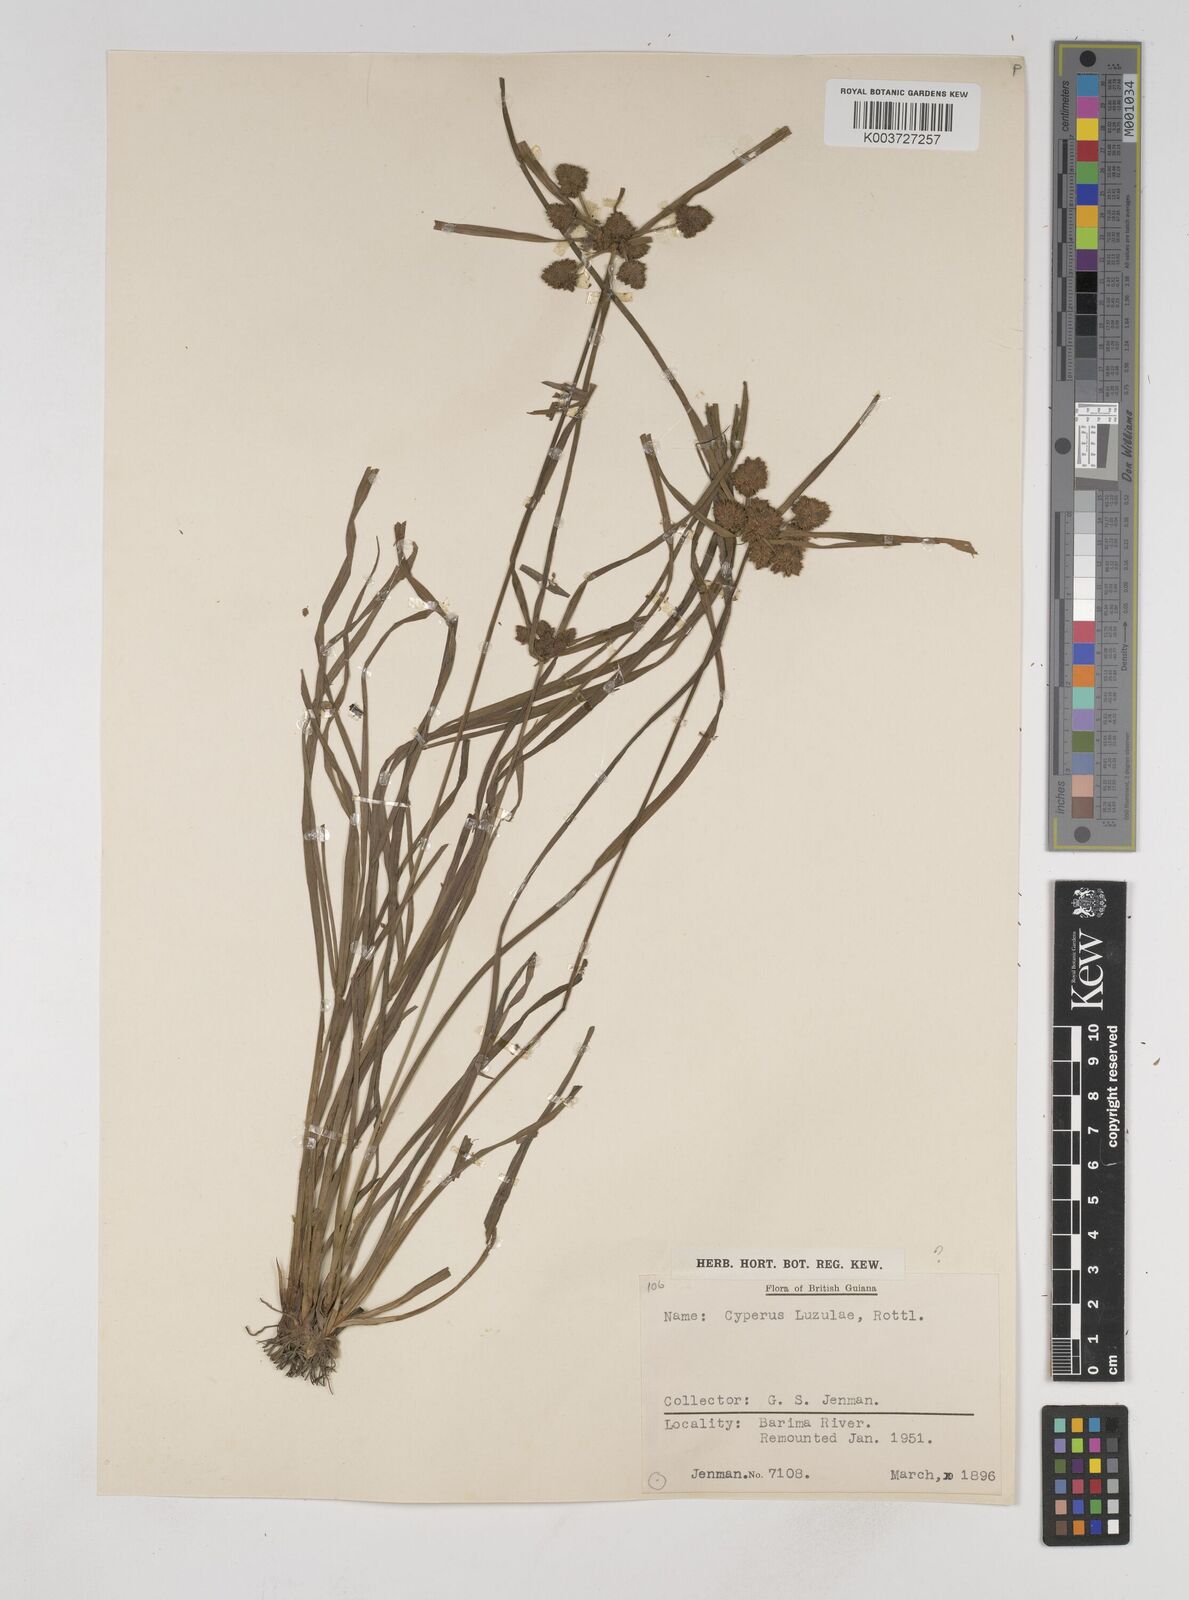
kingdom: Plantae
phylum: Tracheophyta
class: Liliopsida
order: Poales
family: Cyperaceae
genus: Cyperus
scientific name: Cyperus luzulae
